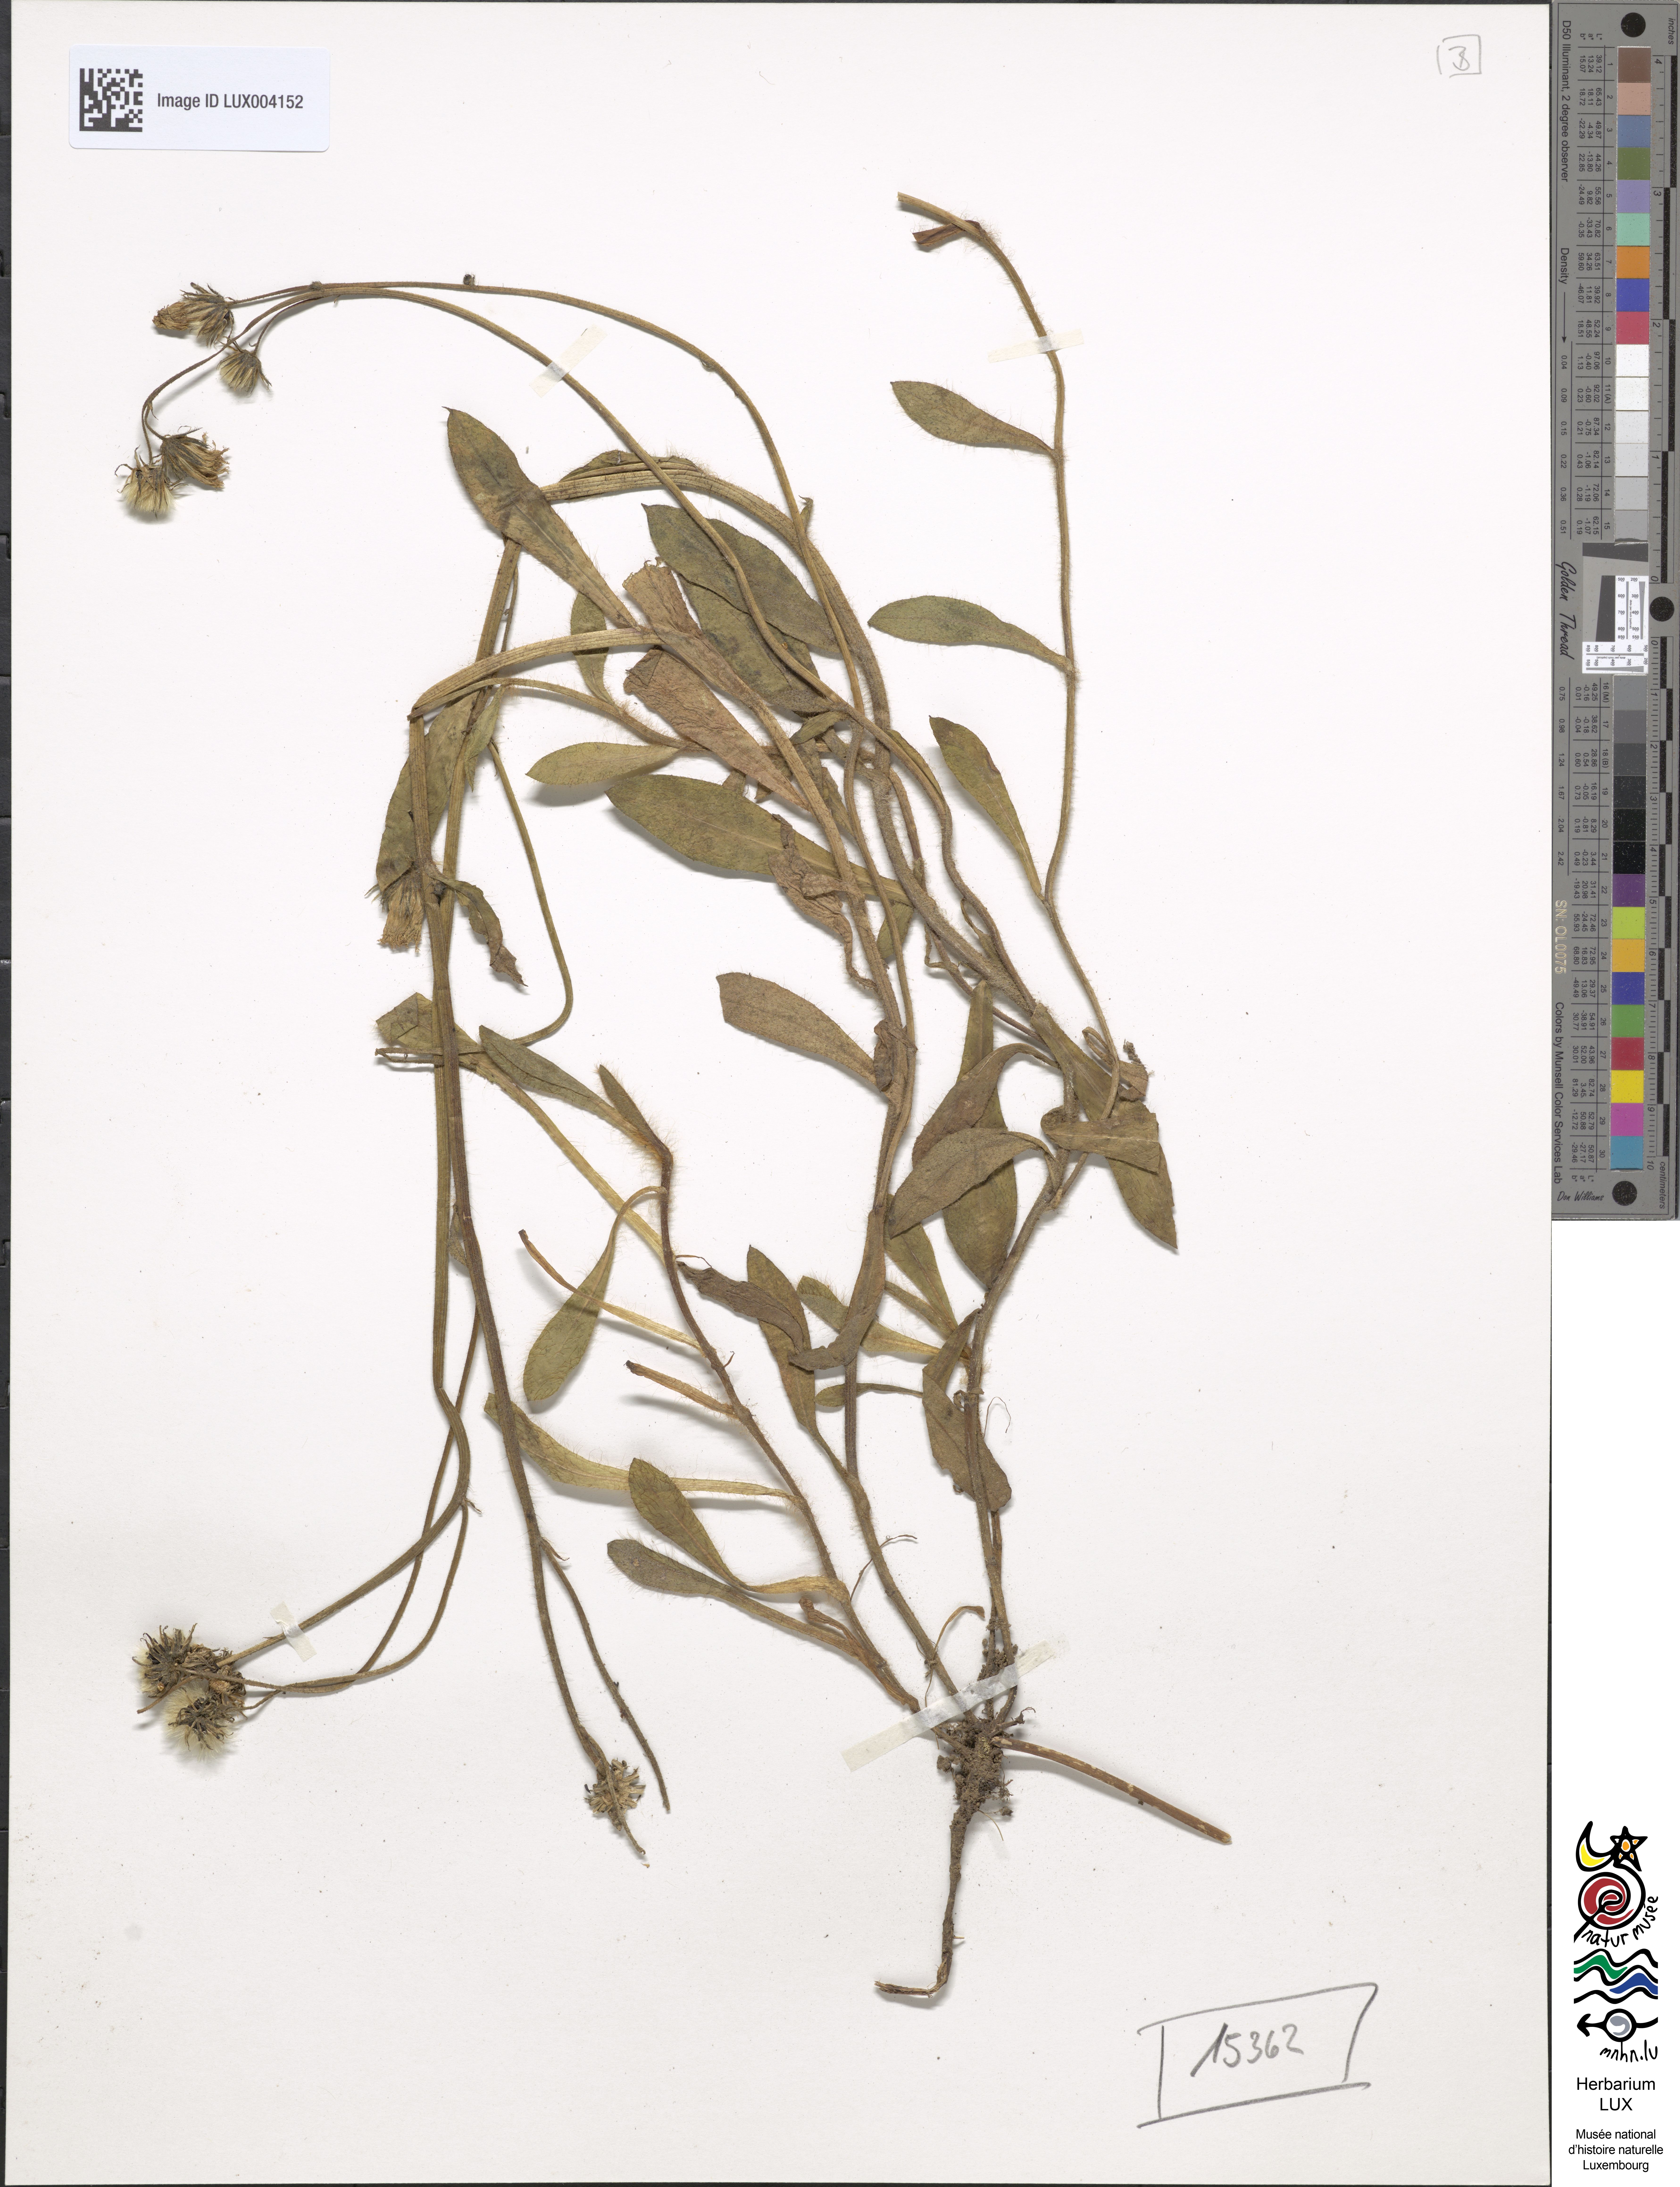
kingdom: Plantae
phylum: Tracheophyta
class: Magnoliopsida
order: Asterales
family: Asteraceae
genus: Pilosella
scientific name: Pilosella stoloniflora
